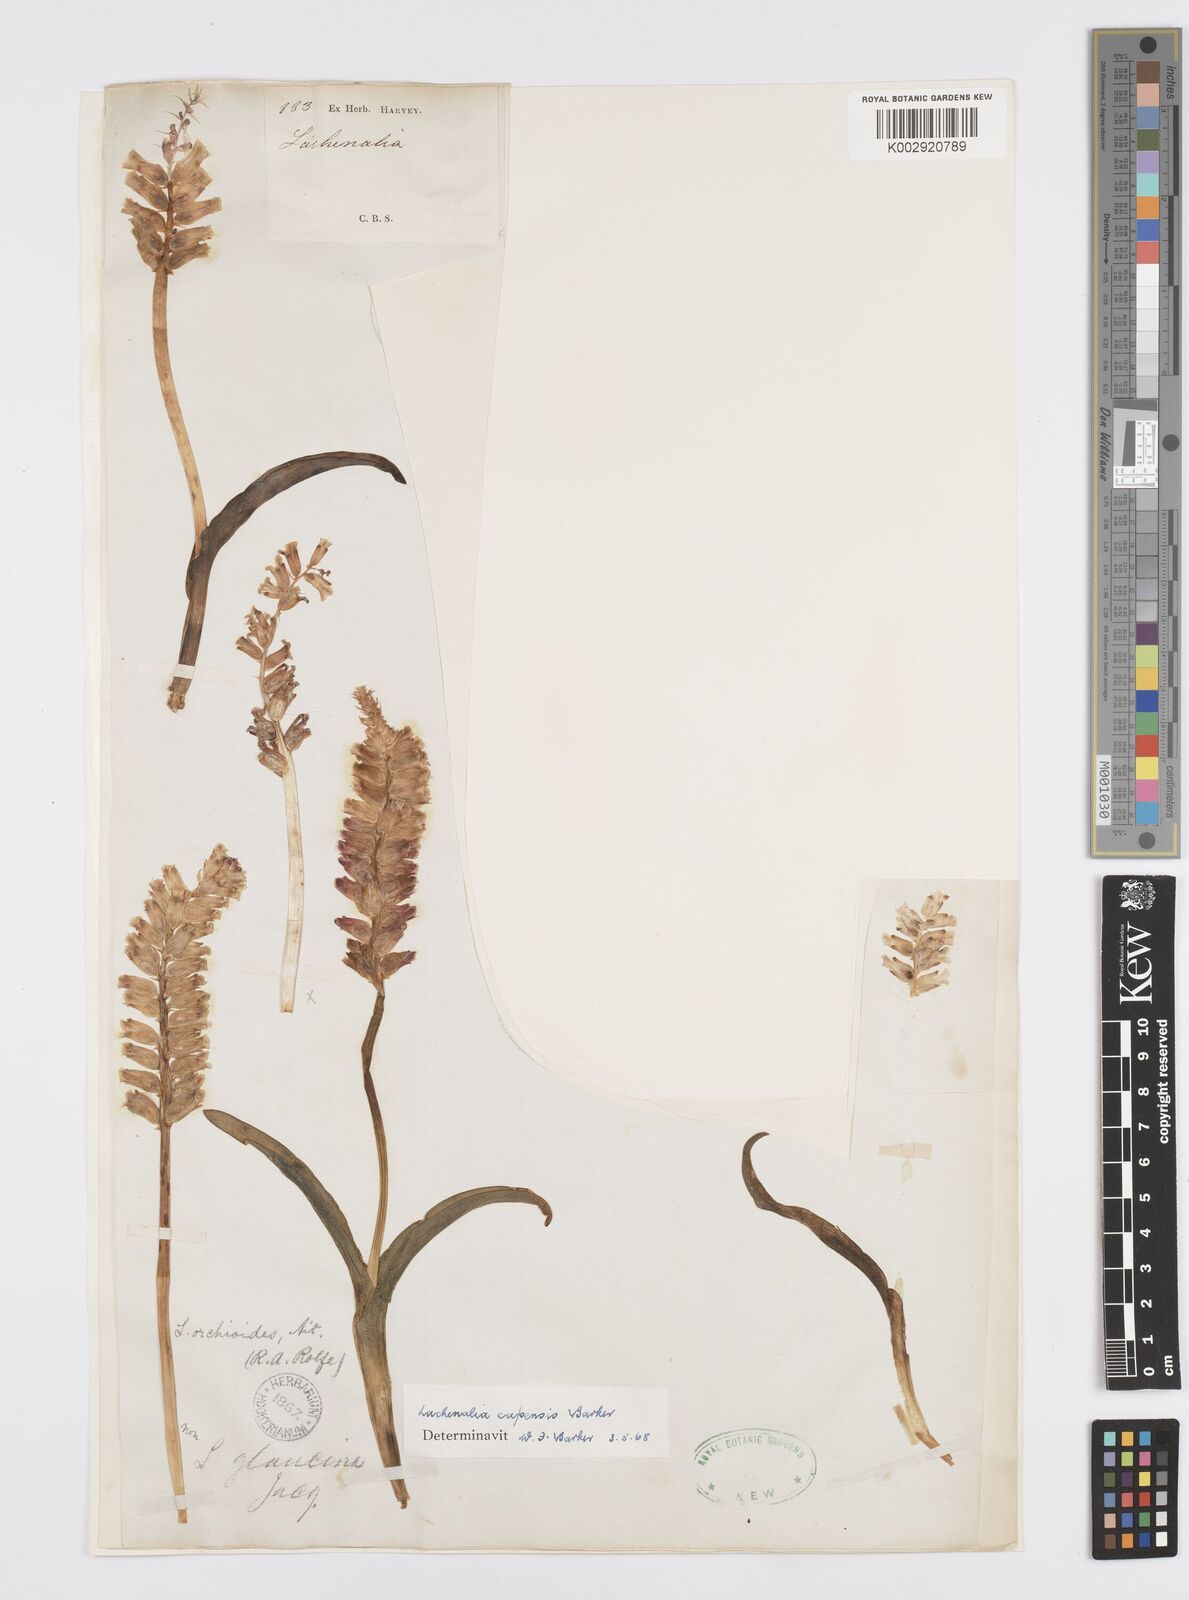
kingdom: Plantae
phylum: Tracheophyta
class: Liliopsida
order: Asparagales
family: Asparagaceae
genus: Lachenalia
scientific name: Lachenalia capensis
